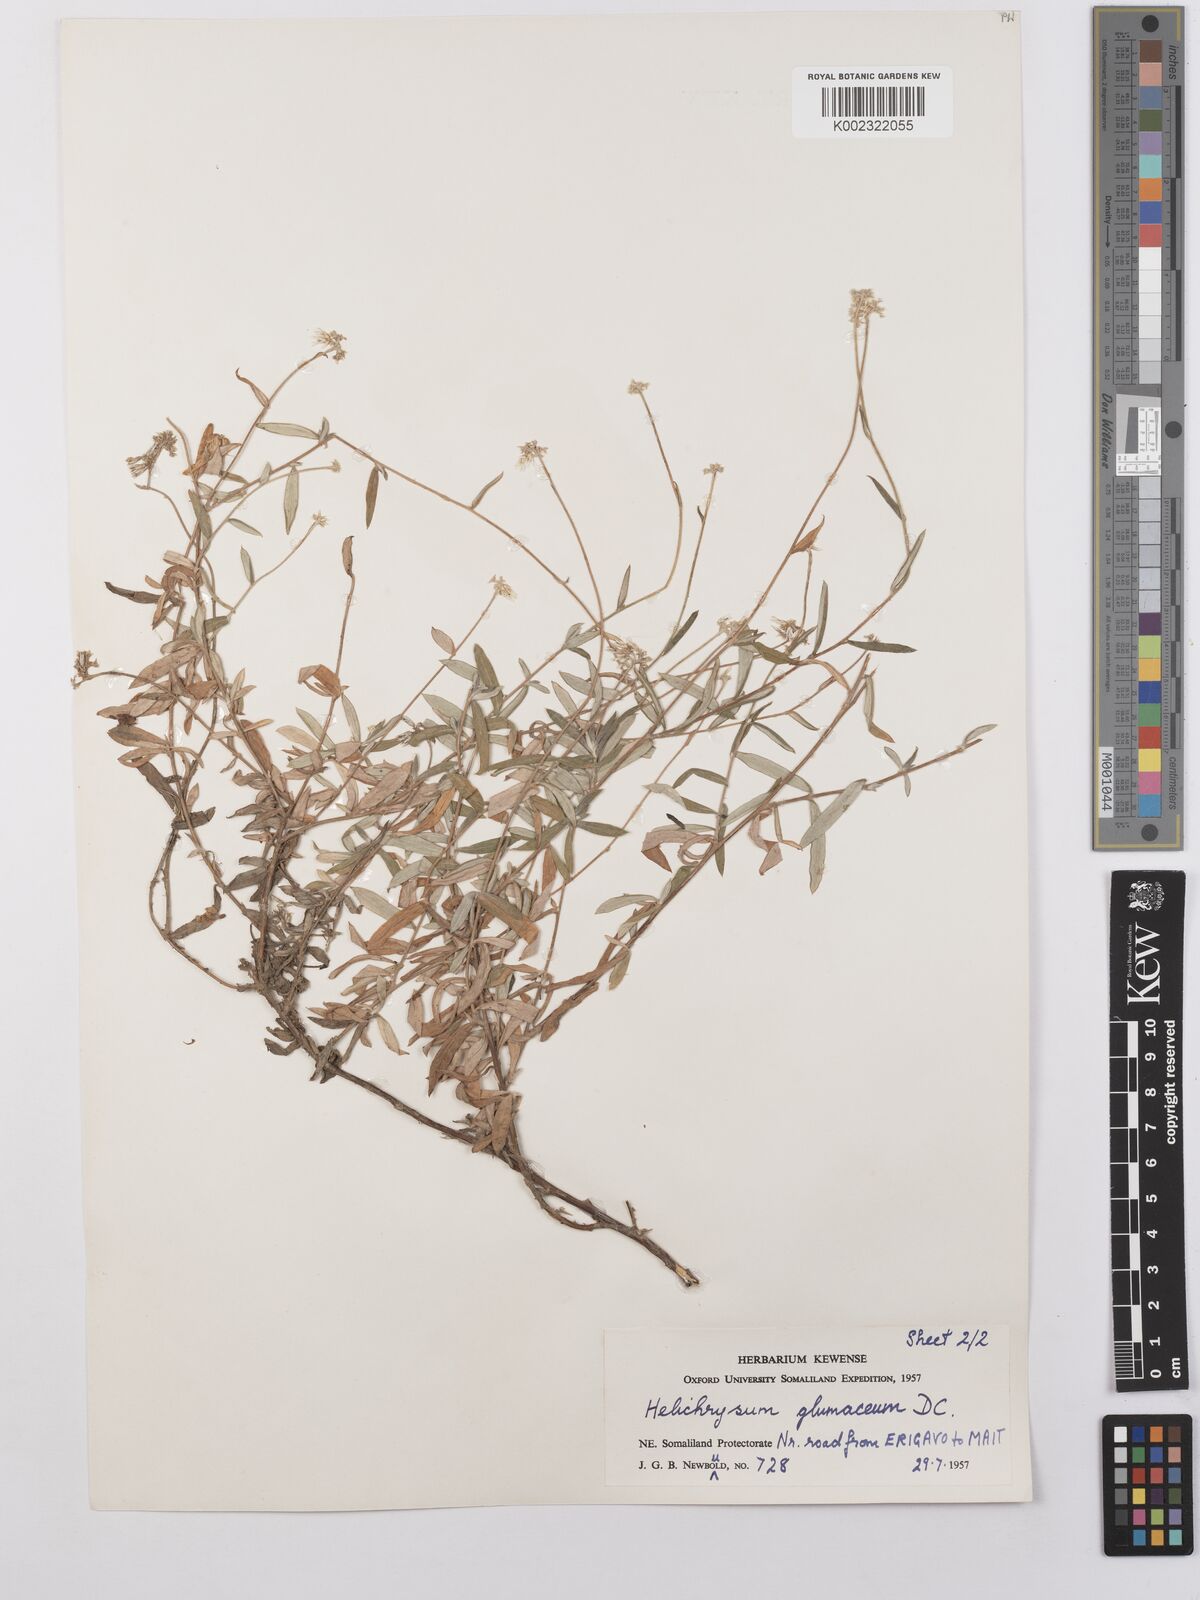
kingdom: Plantae
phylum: Tracheophyta
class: Magnoliopsida
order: Asterales
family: Asteraceae
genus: Helichrysum
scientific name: Helichrysum glumaceum
